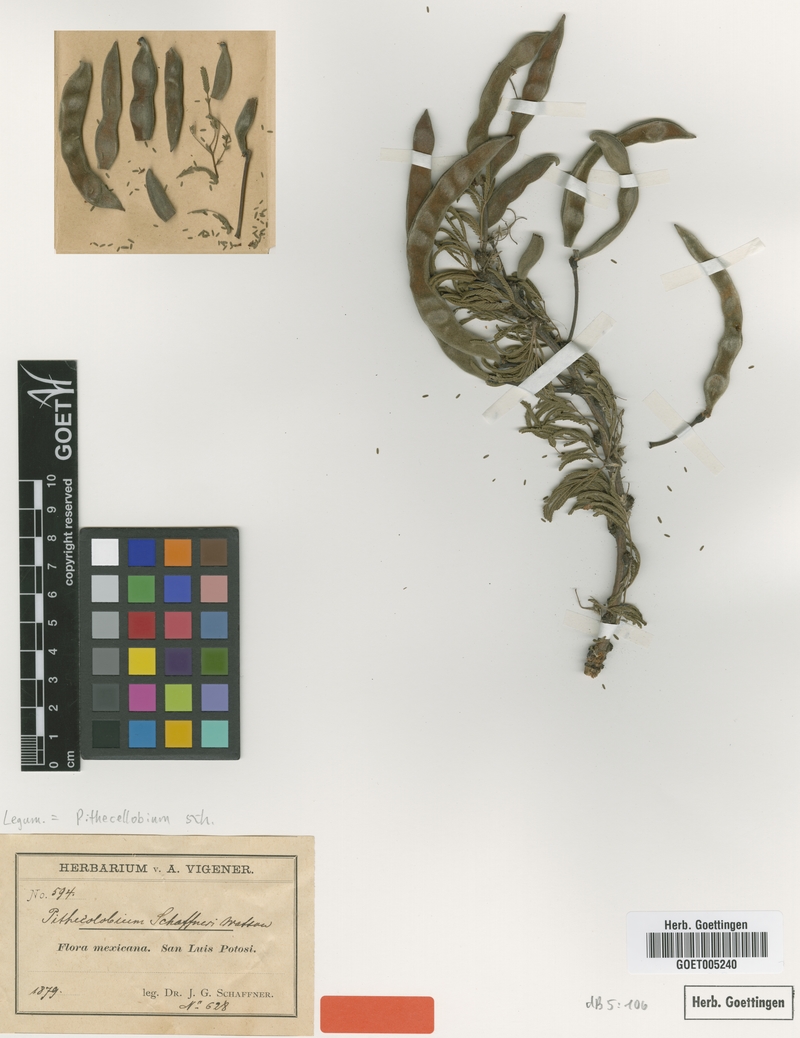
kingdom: Plantae
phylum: Tracheophyta
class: Magnoliopsida
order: Fabales
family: Fabaceae
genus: Vachellia
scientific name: Vachellia schaffneri
